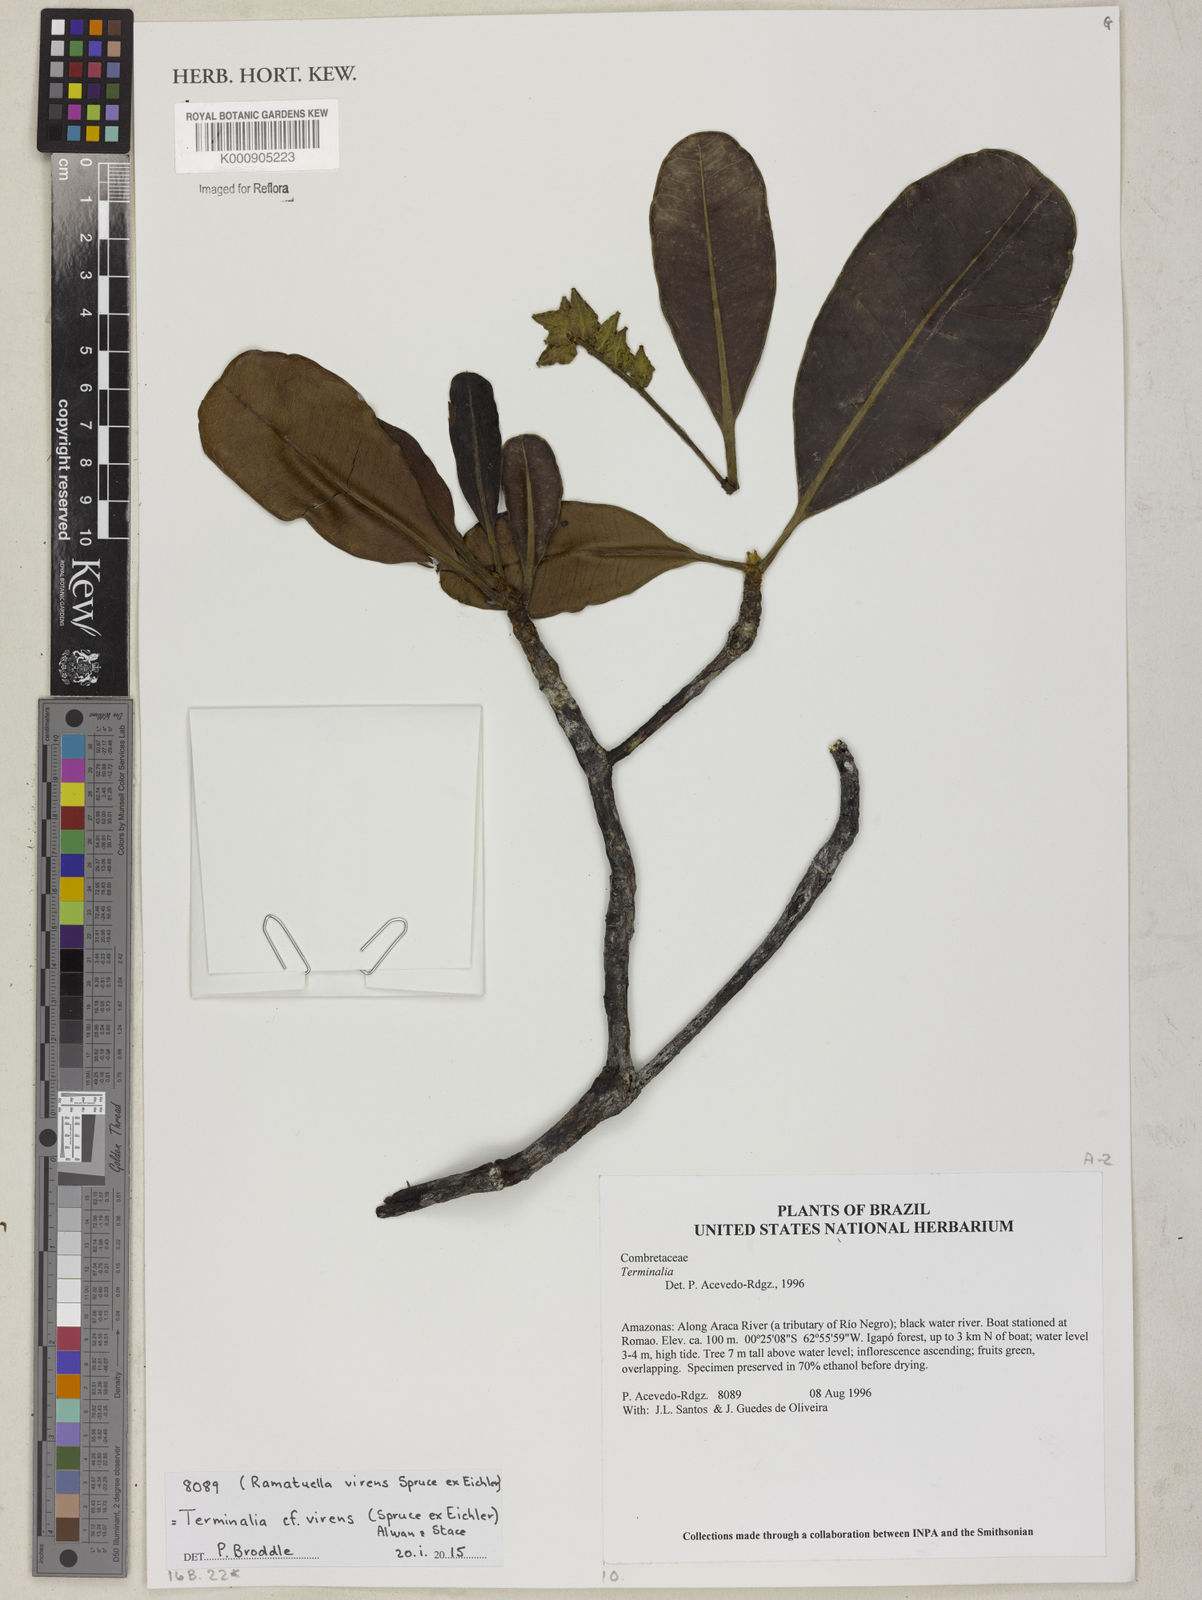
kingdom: Plantae
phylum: Tracheophyta
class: Magnoliopsida
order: Myrtales
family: Combretaceae
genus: Terminalia
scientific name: Terminalia virens
